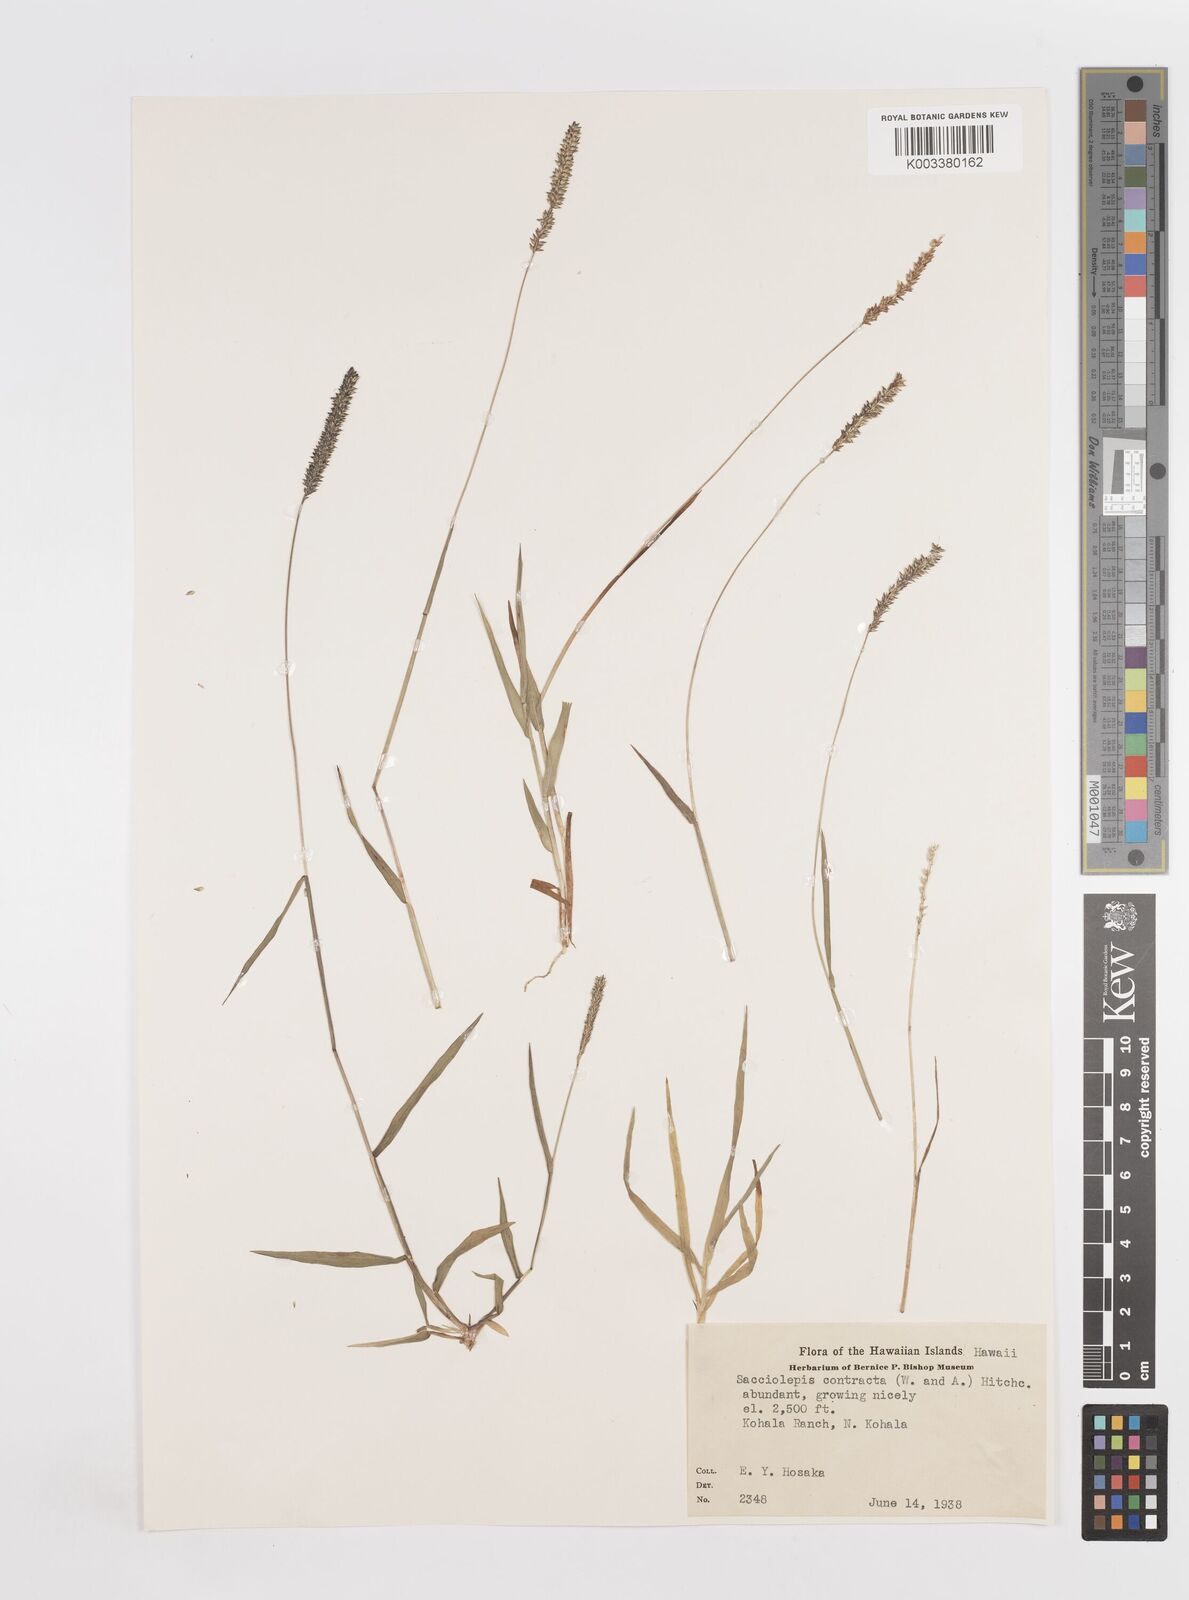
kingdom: Plantae
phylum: Tracheophyta
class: Liliopsida
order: Poales
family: Poaceae
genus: Sacciolepis
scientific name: Sacciolepis indica
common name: Glenwoodgrass
